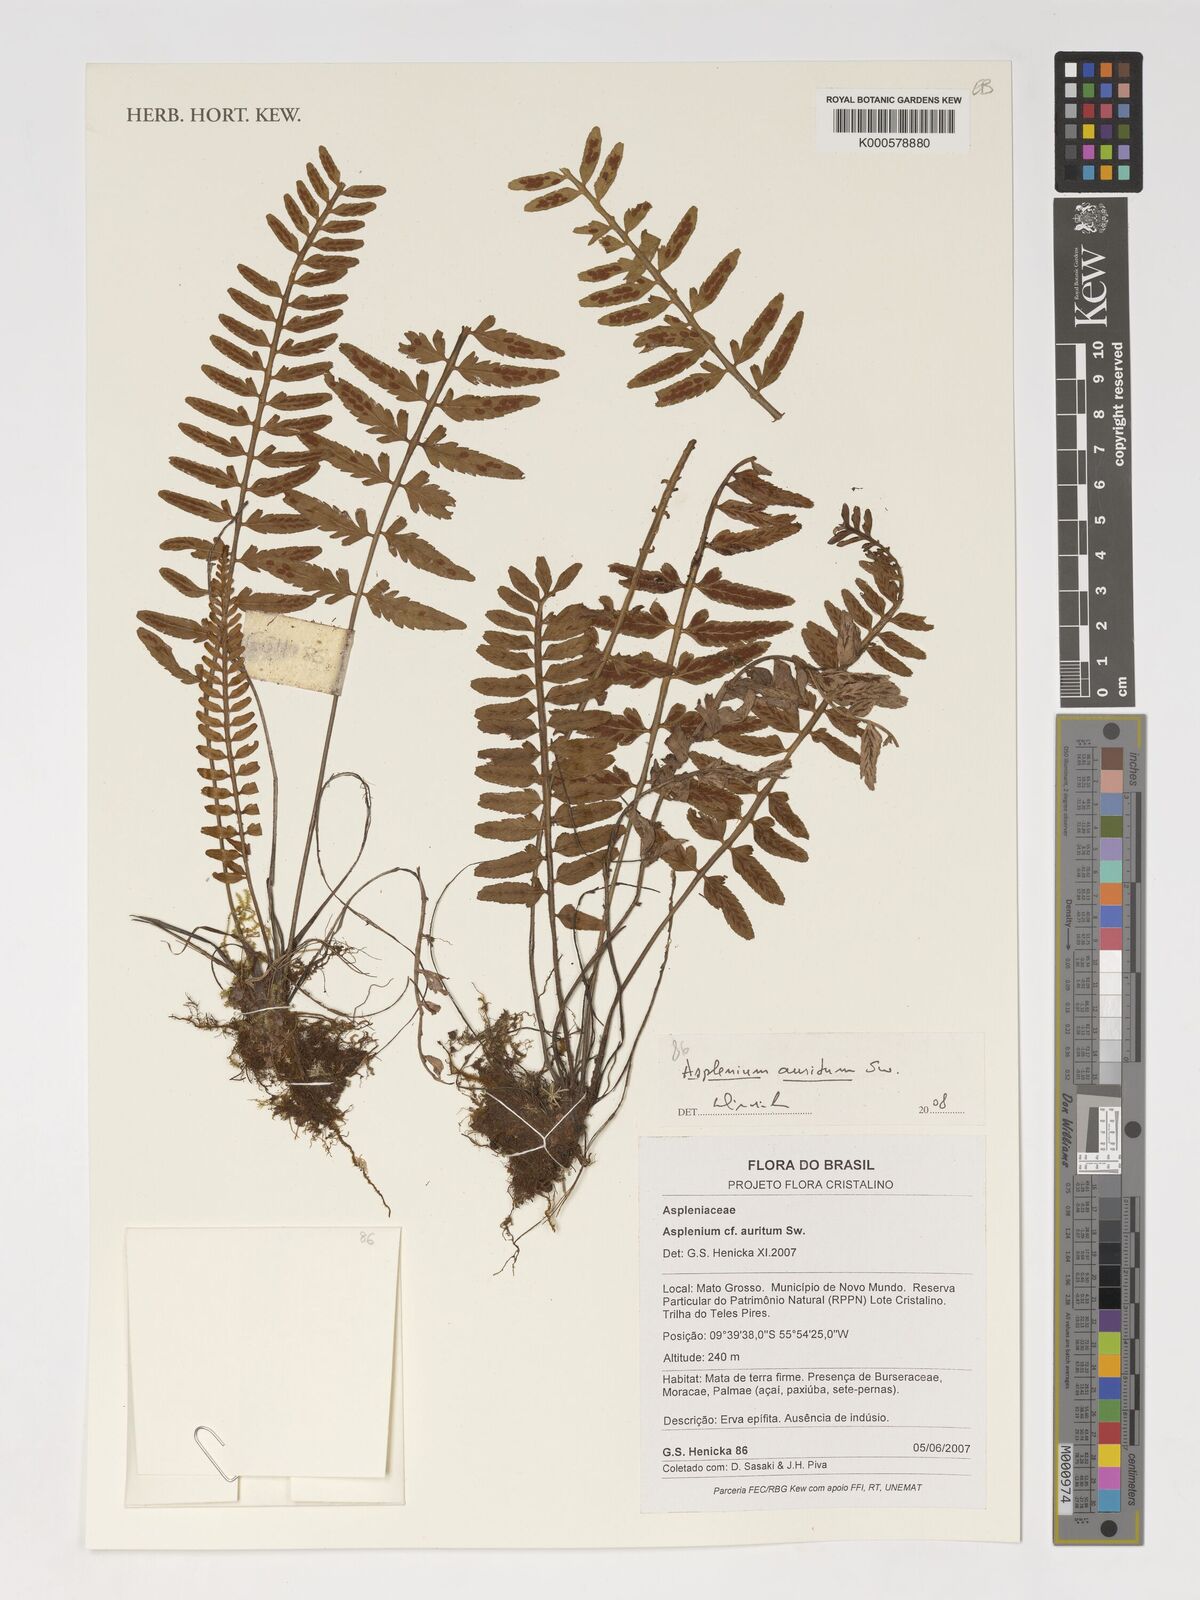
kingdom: Plantae
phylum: Tracheophyta
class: Polypodiopsida
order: Polypodiales
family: Aspleniaceae
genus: Asplenium
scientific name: Asplenium auritum
